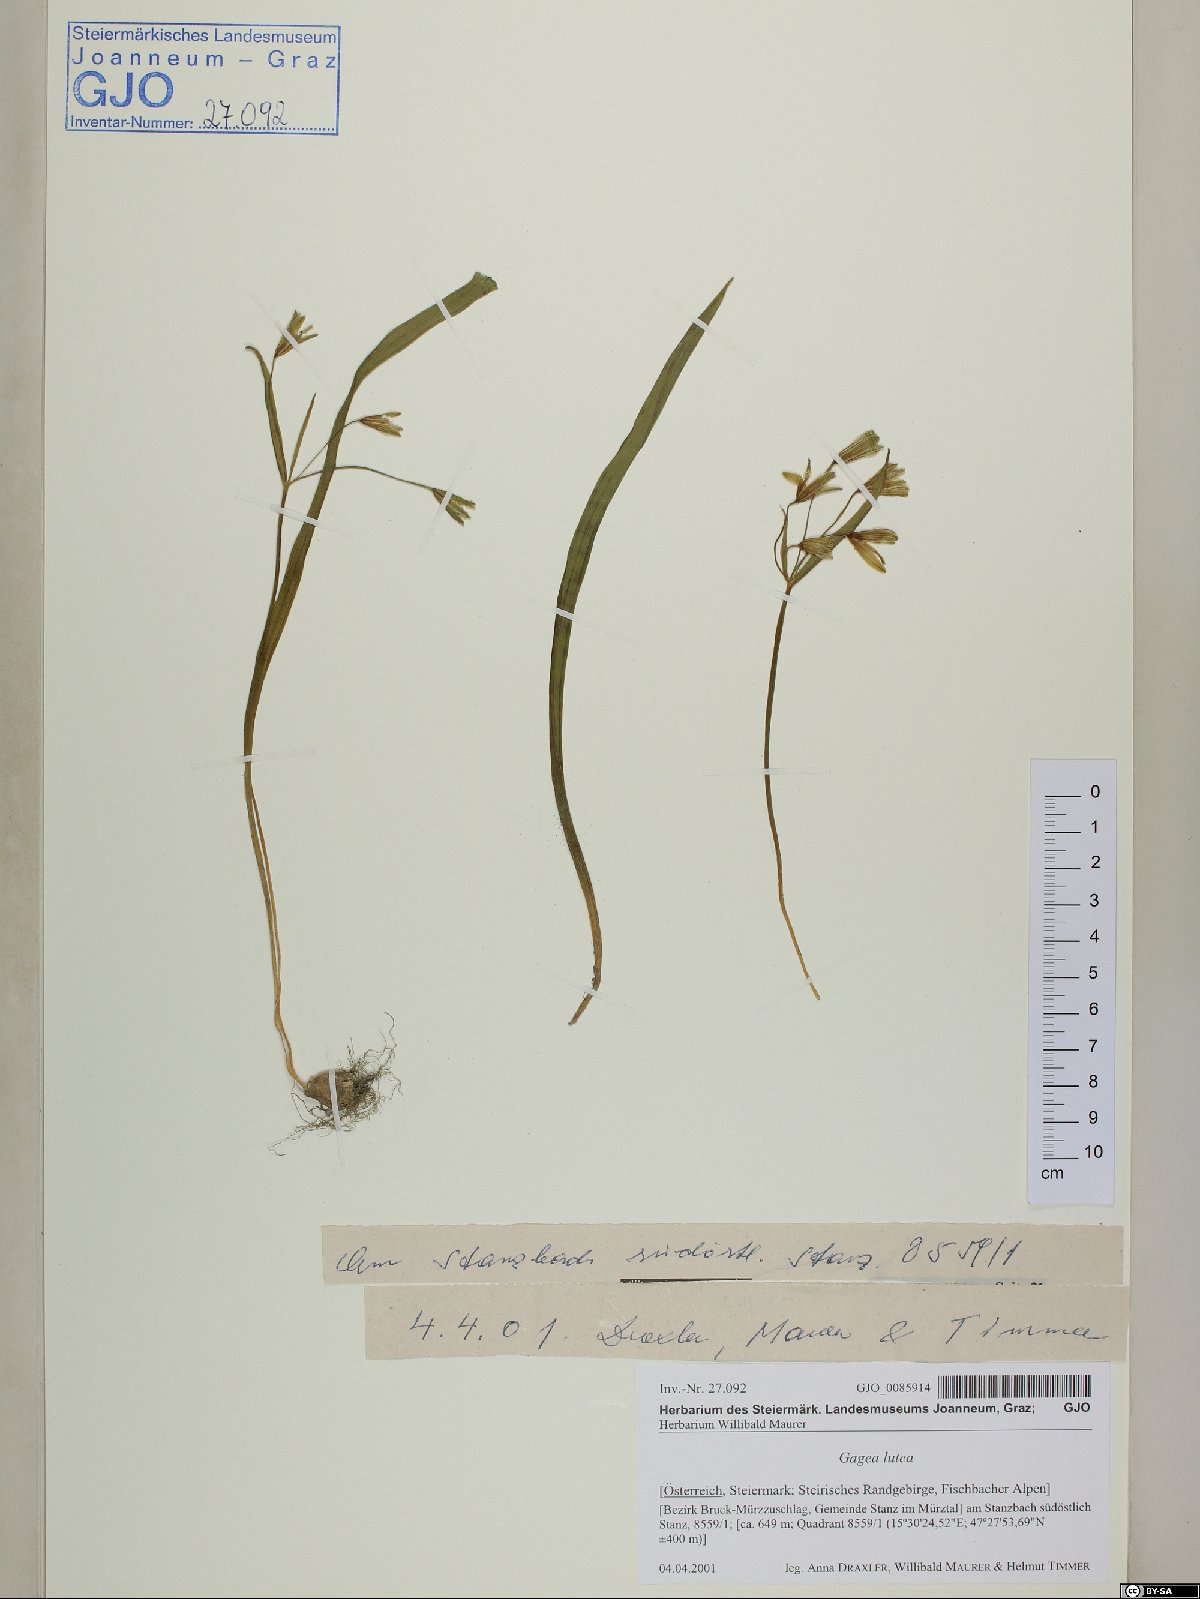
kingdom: Plantae
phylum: Tracheophyta
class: Liliopsida
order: Liliales
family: Liliaceae
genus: Gagea
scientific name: Gagea lutea
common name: Yellow star-of-bethlehem
